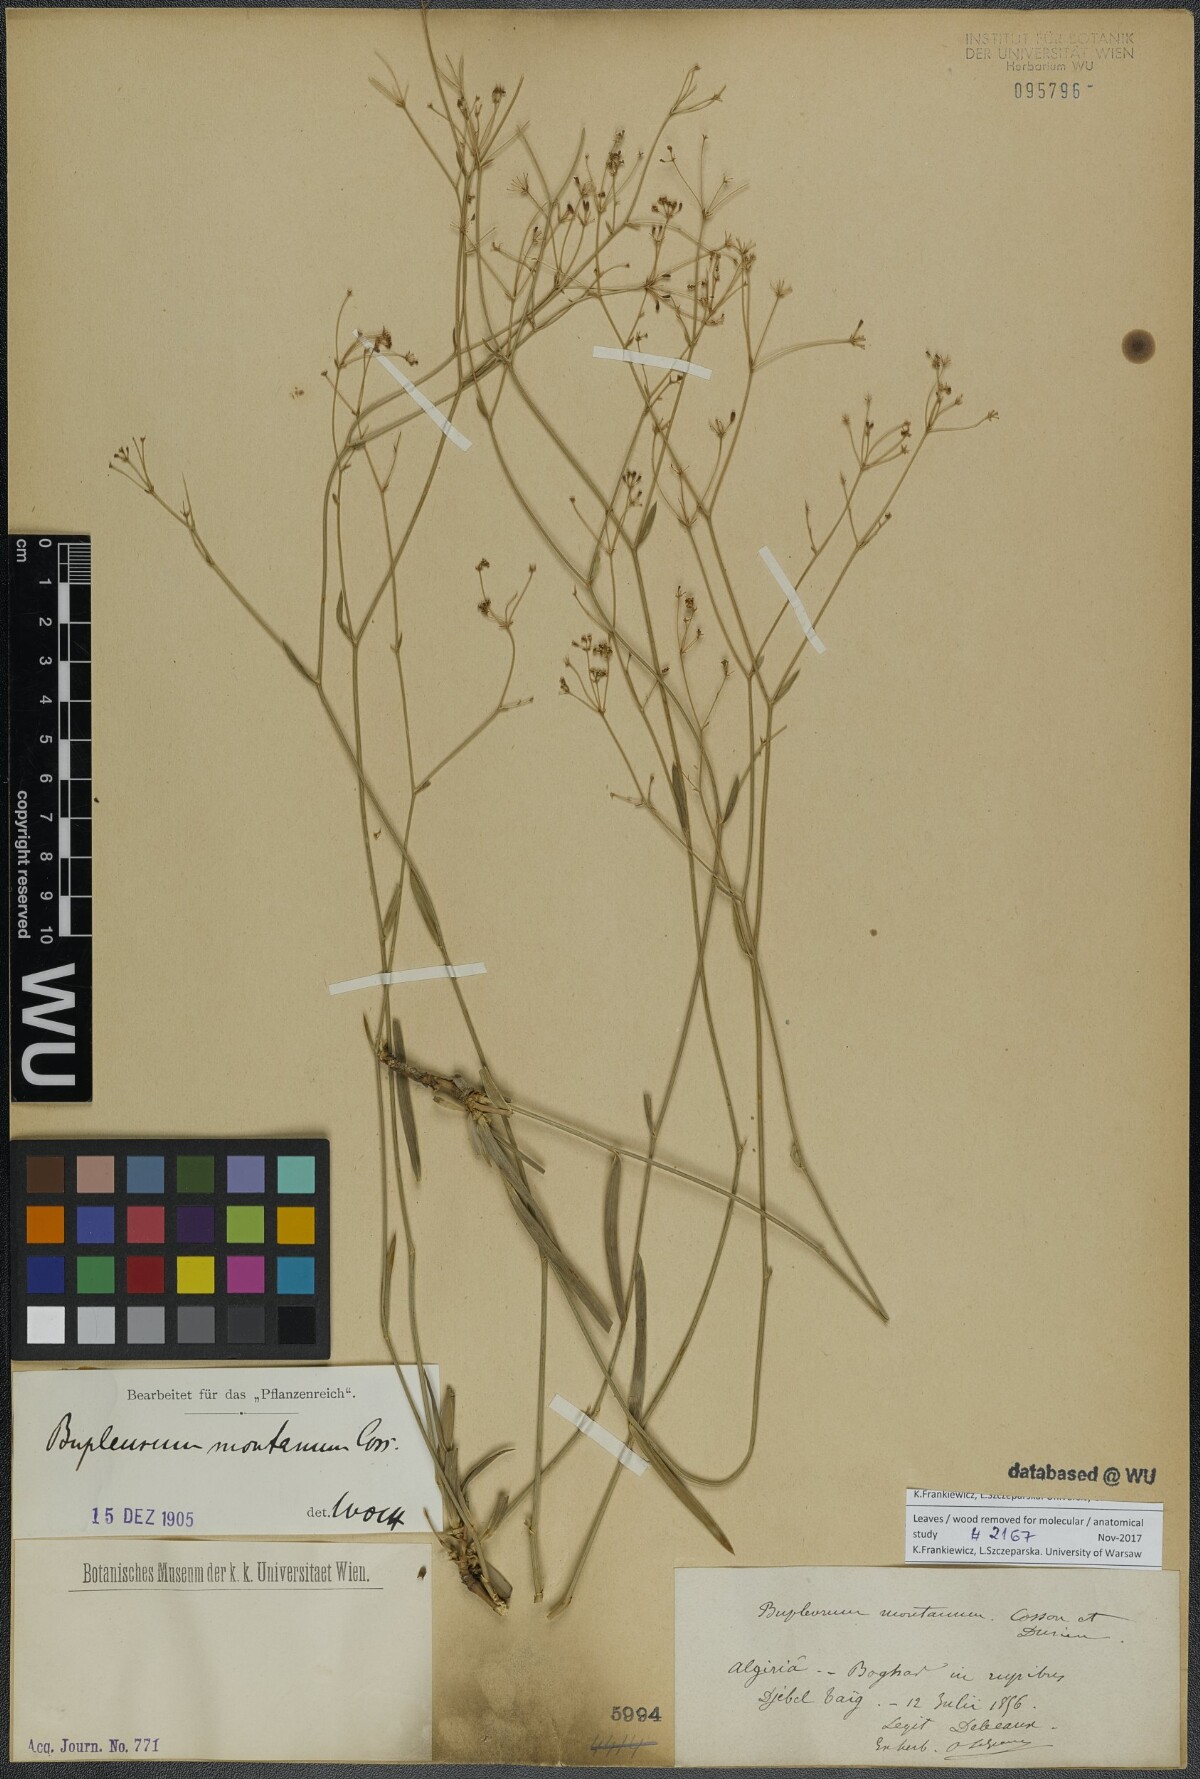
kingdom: Plantae
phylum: Tracheophyta
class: Magnoliopsida
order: Apiales
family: Apiaceae
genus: Bupleurum
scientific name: Bupleurum montanum
